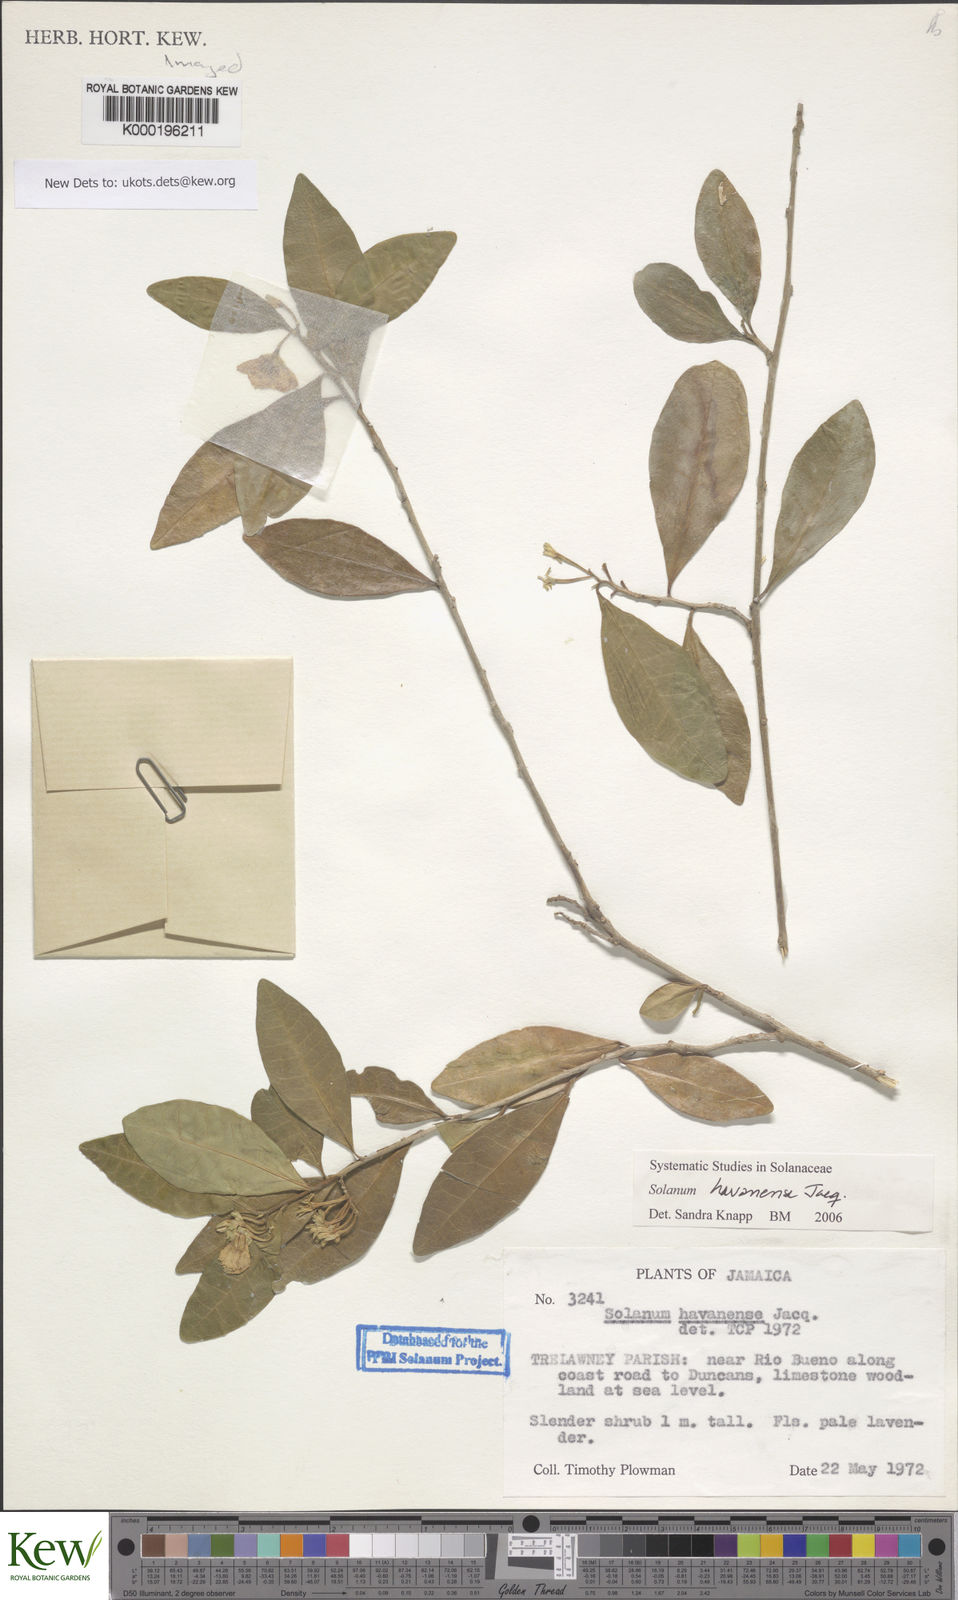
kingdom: Plantae
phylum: Tracheophyta
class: Magnoliopsida
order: Solanales
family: Solanaceae
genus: Solanum
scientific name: Solanum havanense
